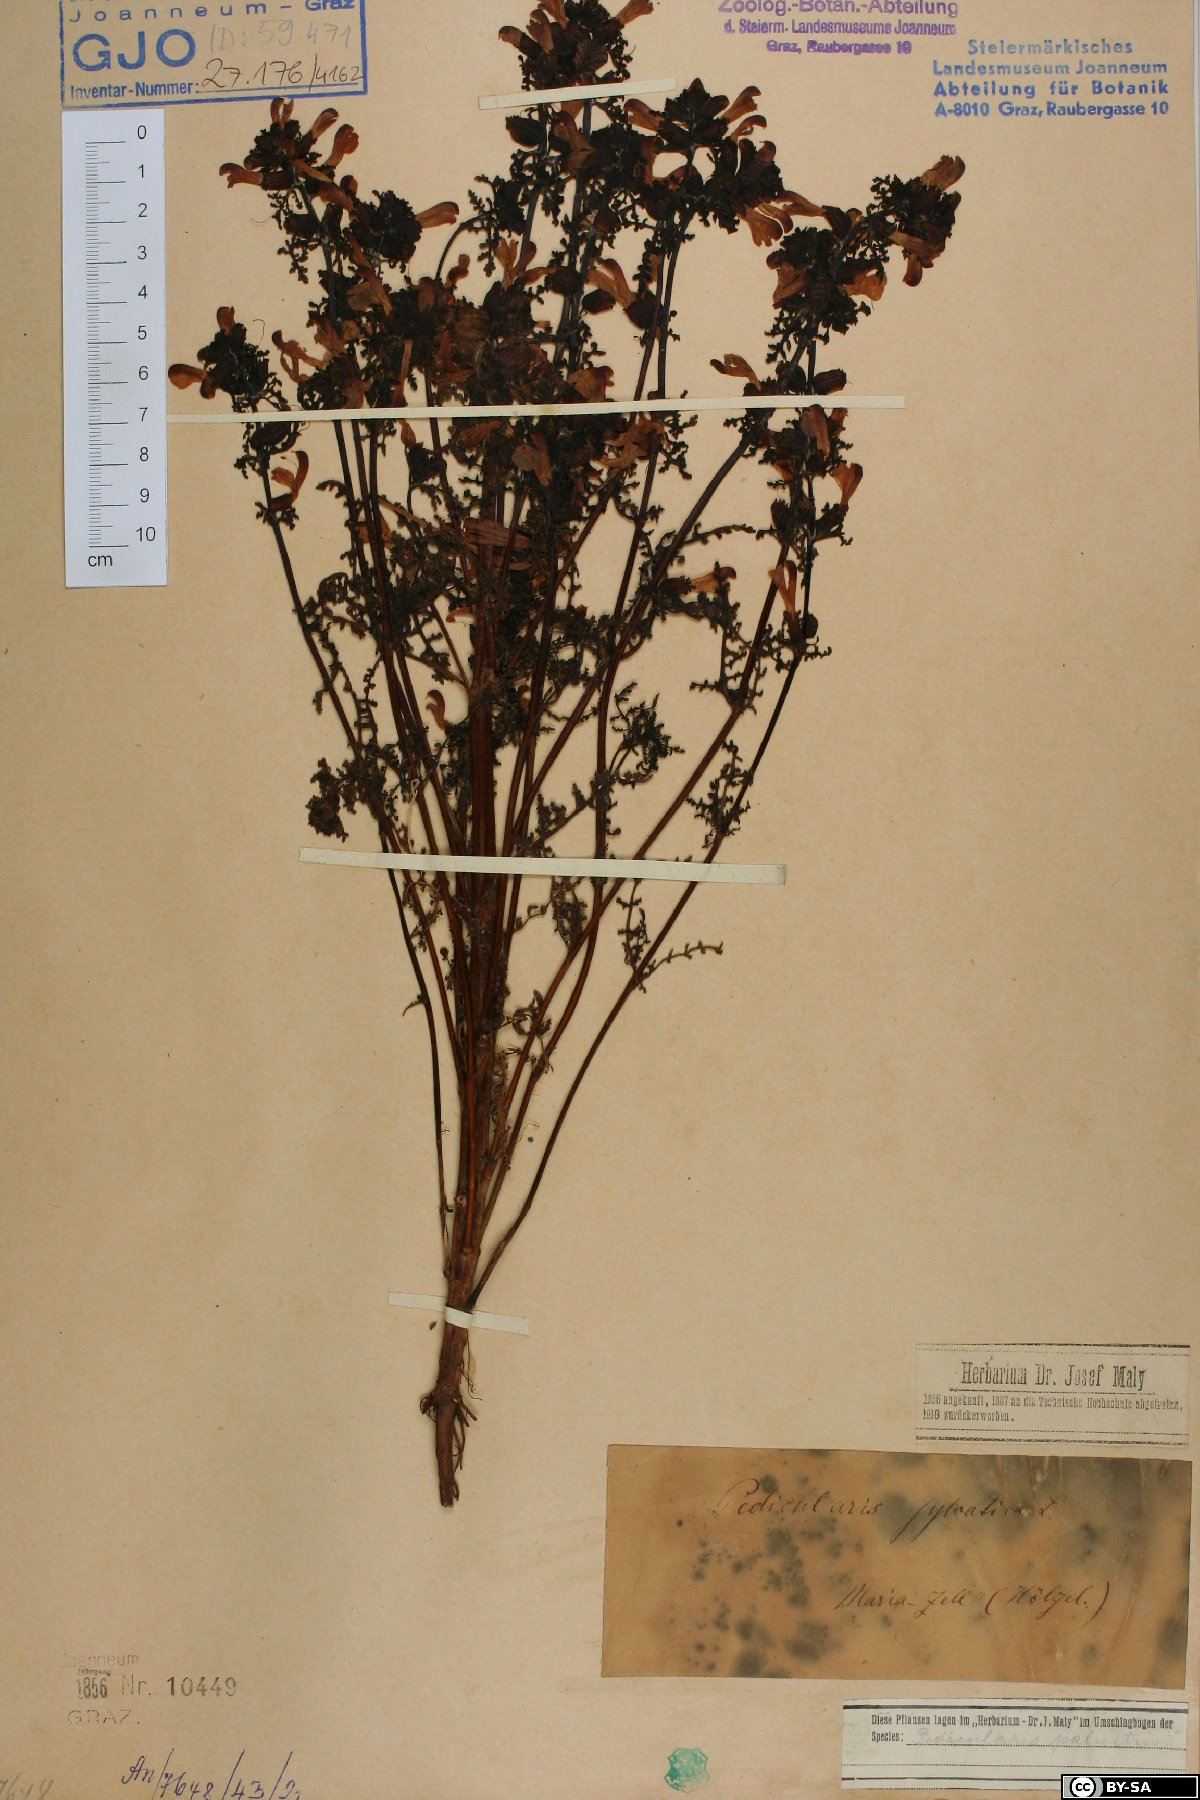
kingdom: Plantae
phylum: Tracheophyta
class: Magnoliopsida
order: Lamiales
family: Orobanchaceae
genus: Pedicularis
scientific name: Pedicularis palustris
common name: Marsh lousewort
